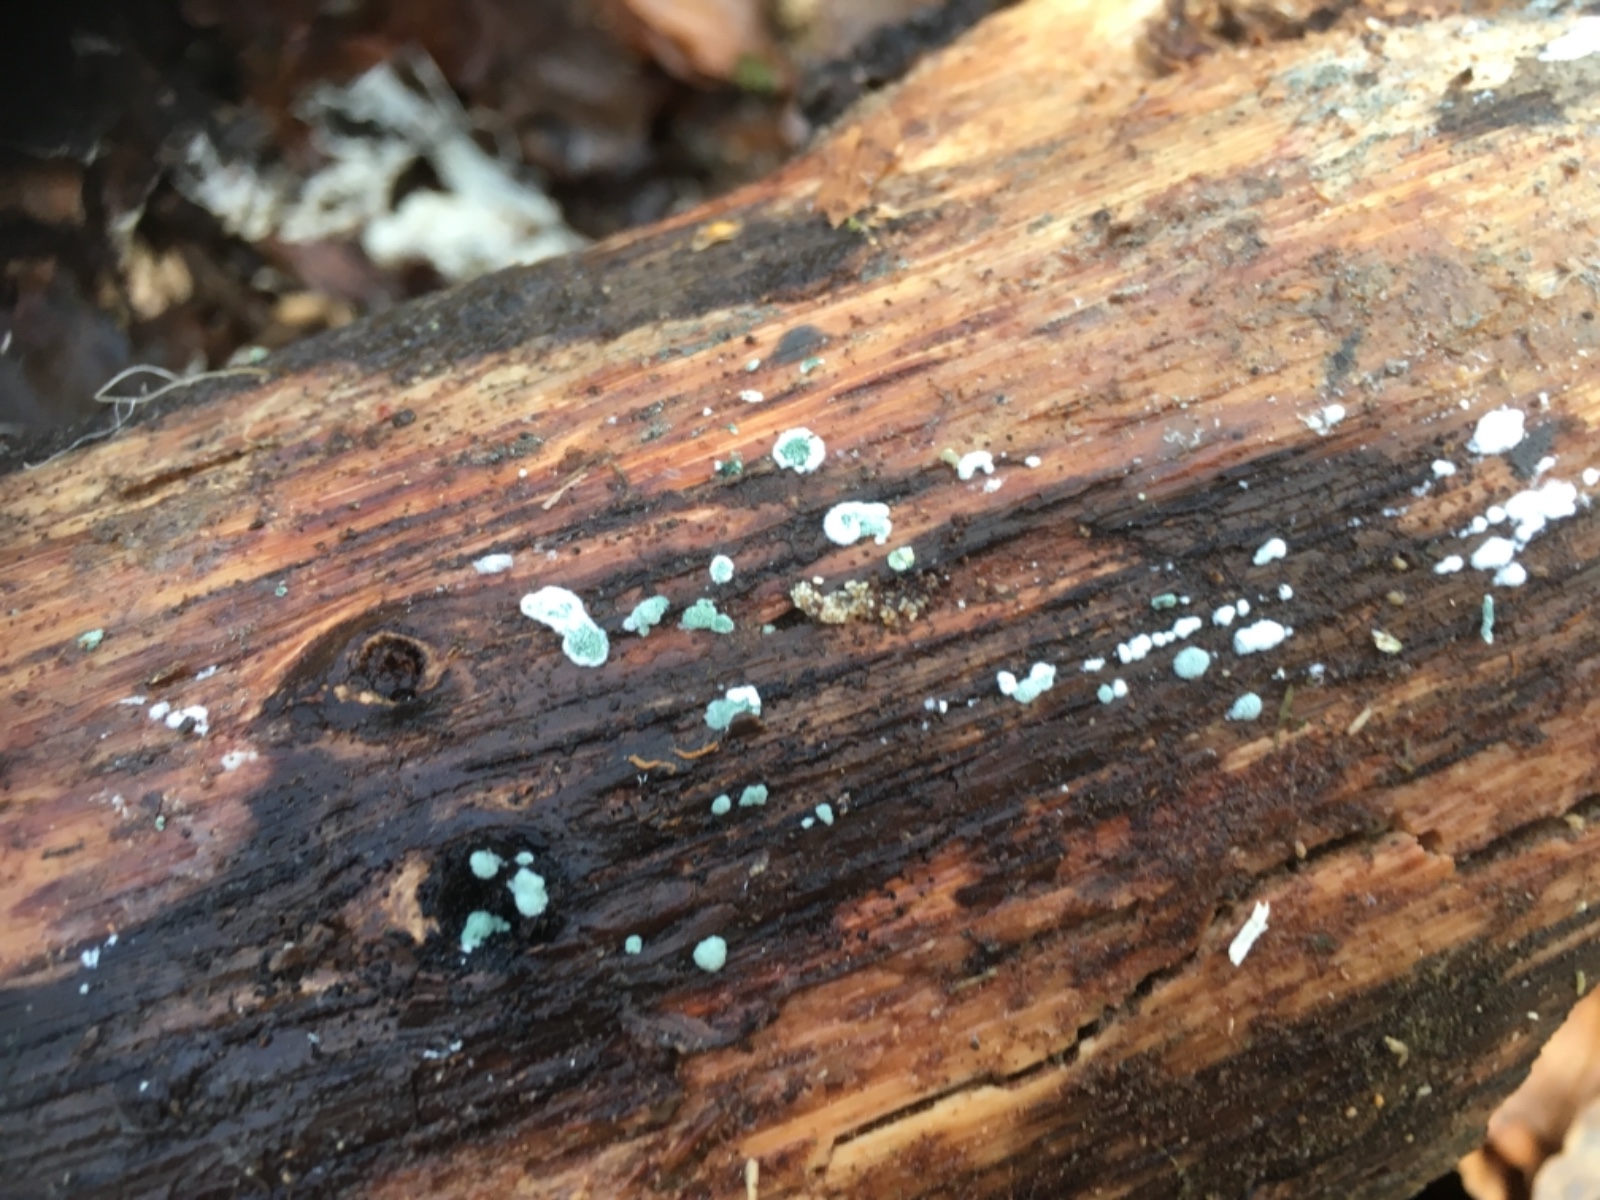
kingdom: Fungi
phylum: Ascomycota
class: Sordariomycetes
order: Hypocreales
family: Hypocreaceae
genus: Trichoderma
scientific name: Trichoderma
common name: kødkerne
